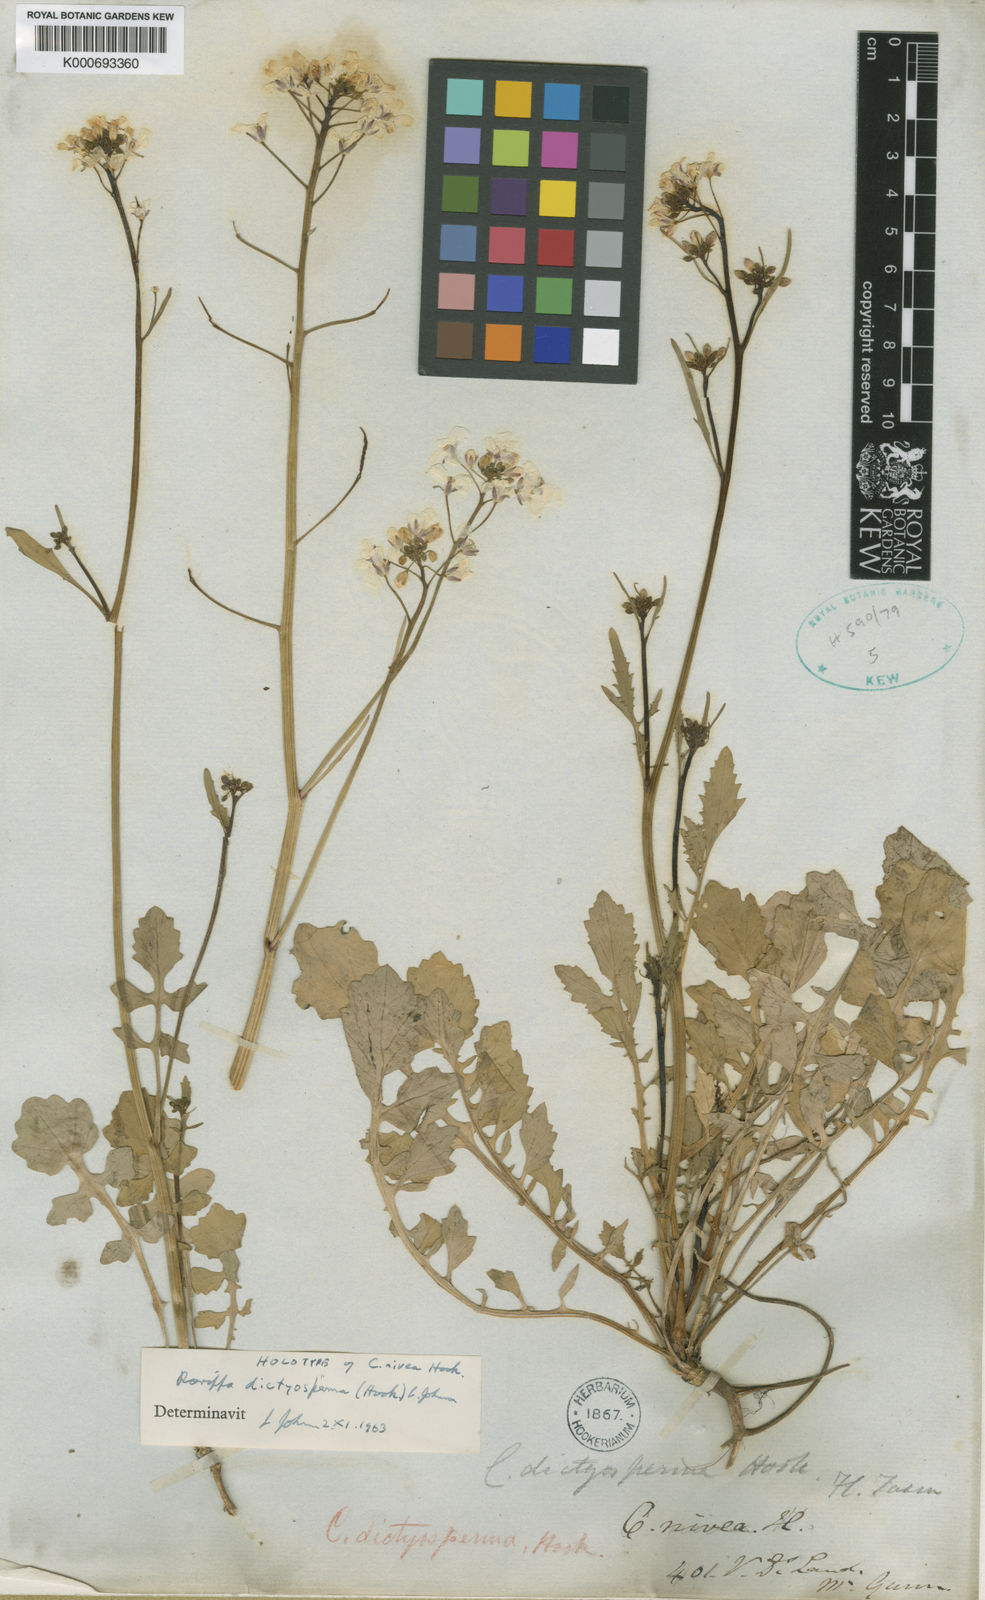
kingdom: Plantae
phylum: Tracheophyta
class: Magnoliopsida
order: Brassicales
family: Brassicaceae
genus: Rorippa
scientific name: Rorippa dictyosperma
